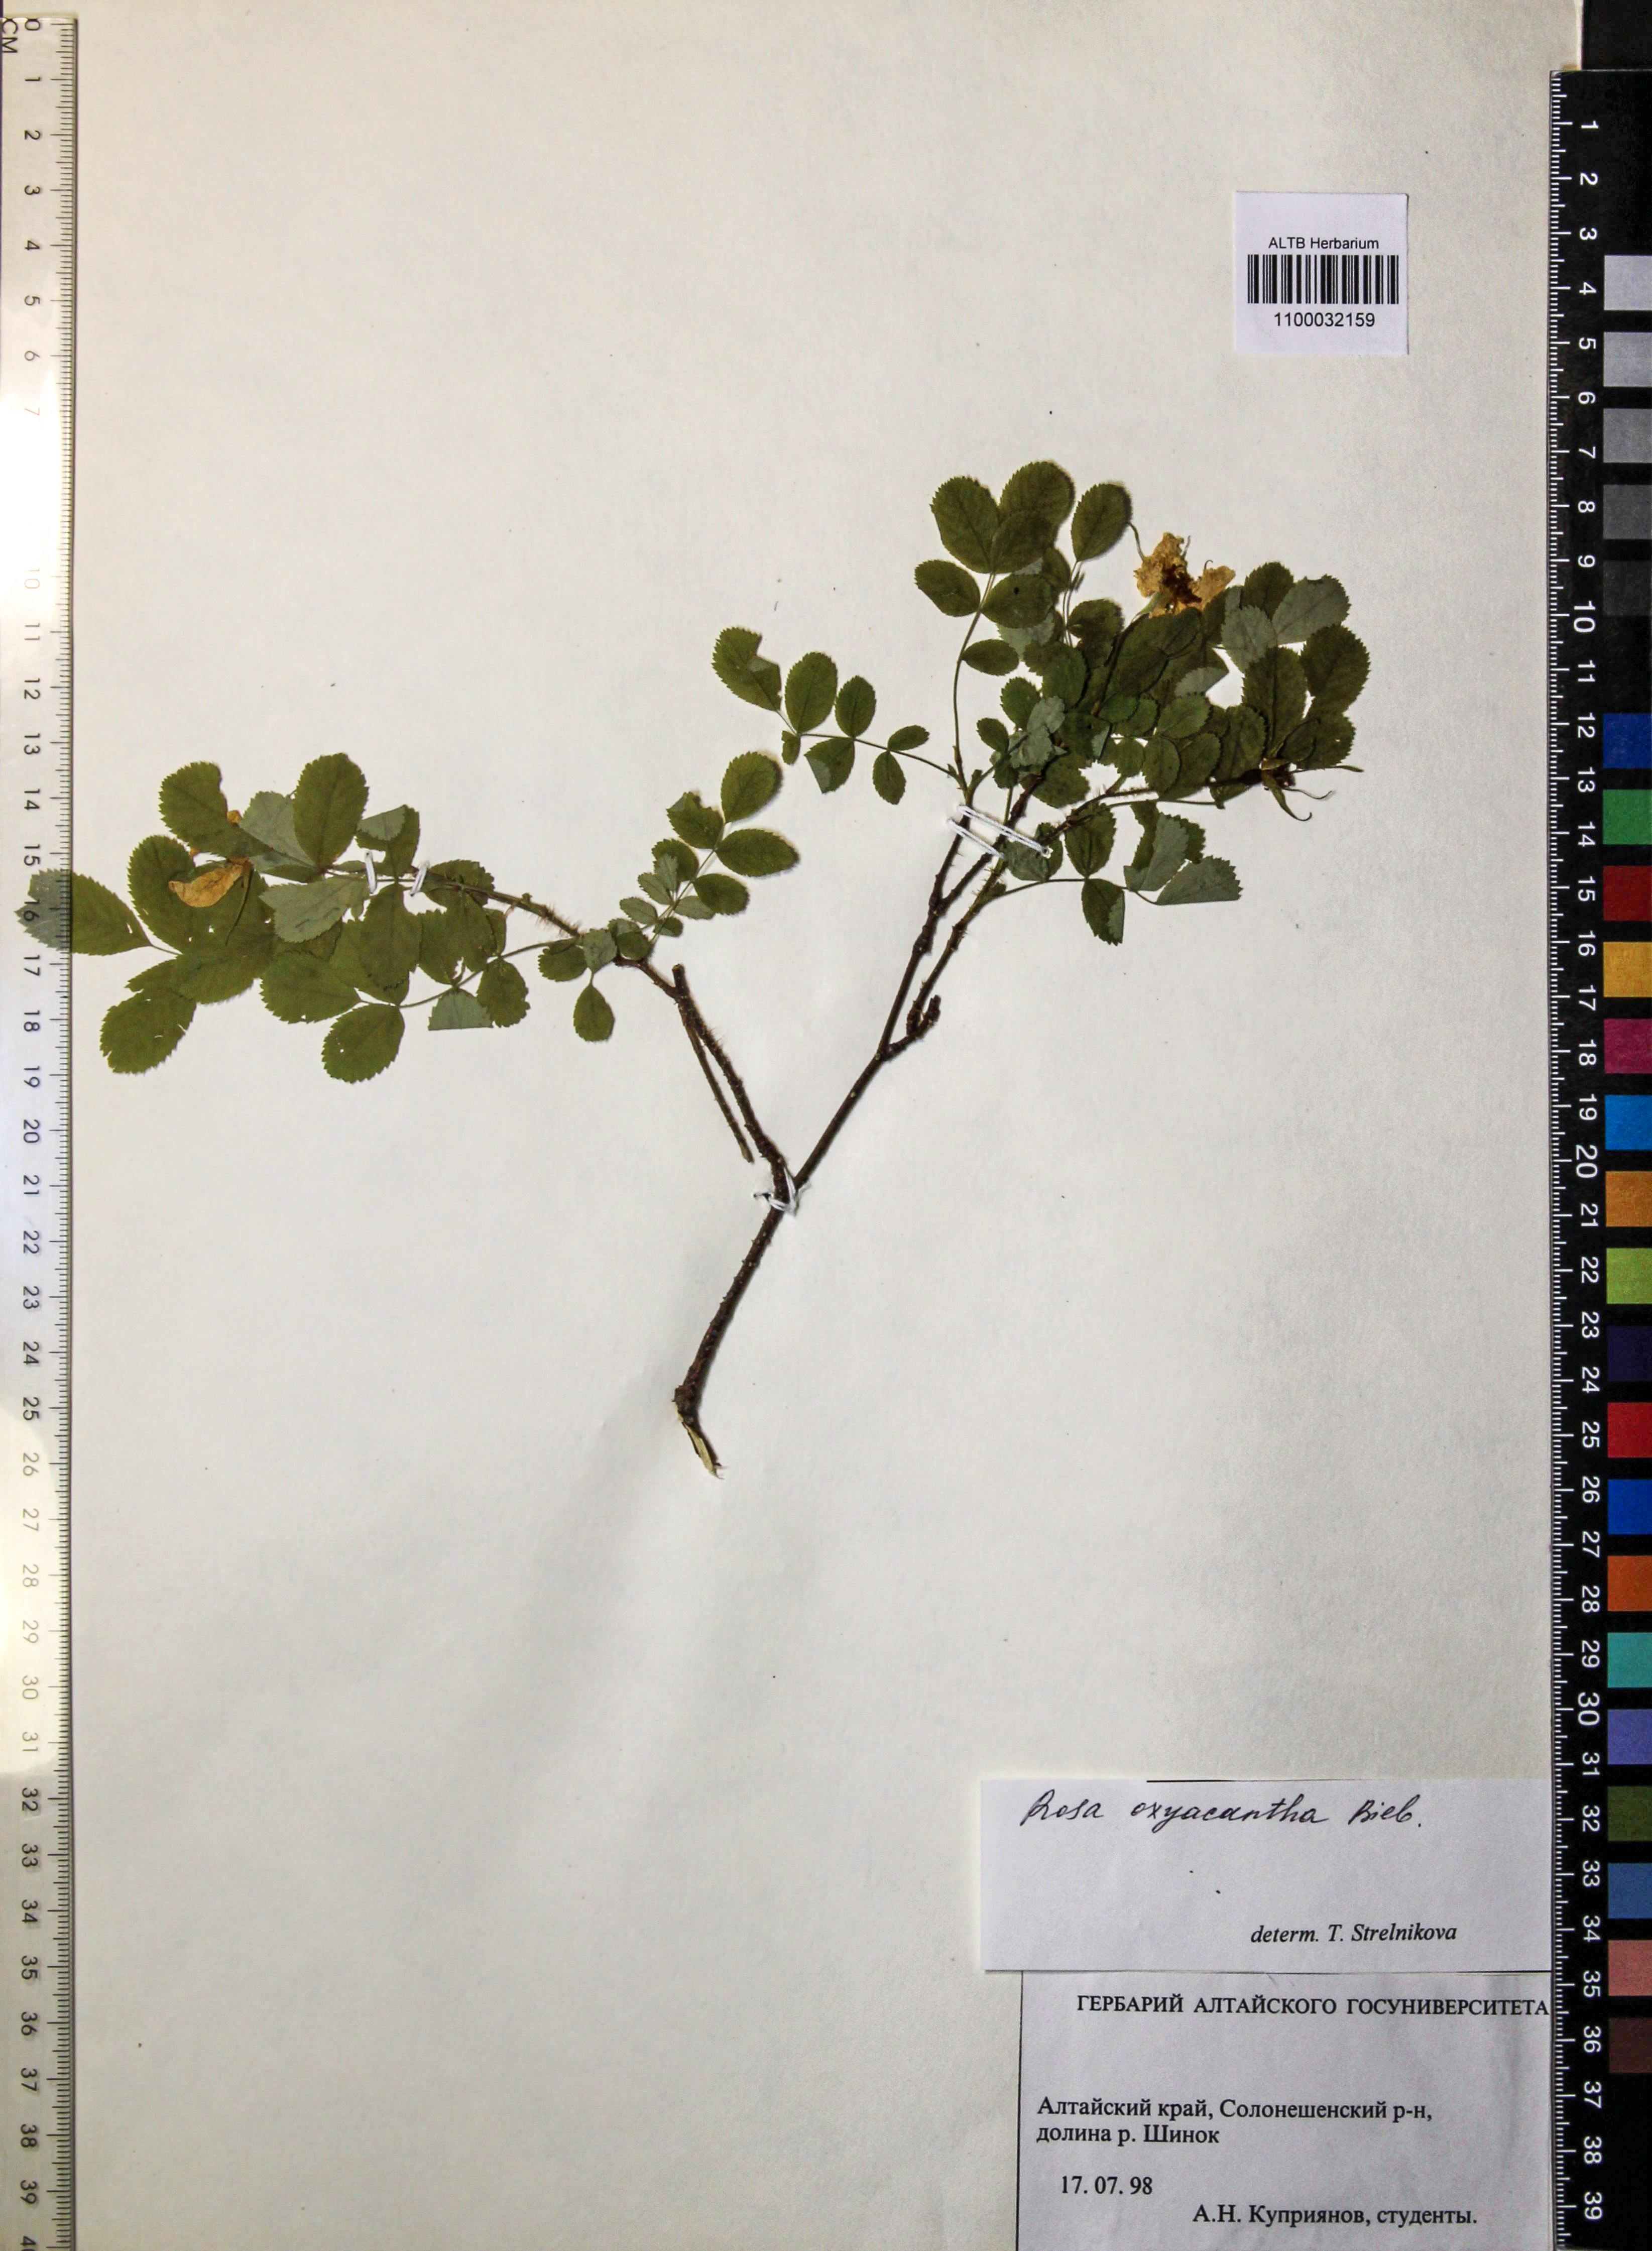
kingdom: Plantae
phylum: Tracheophyta
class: Magnoliopsida
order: Rosales
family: Rosaceae
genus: Rosa
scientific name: Rosa oxyacantha
